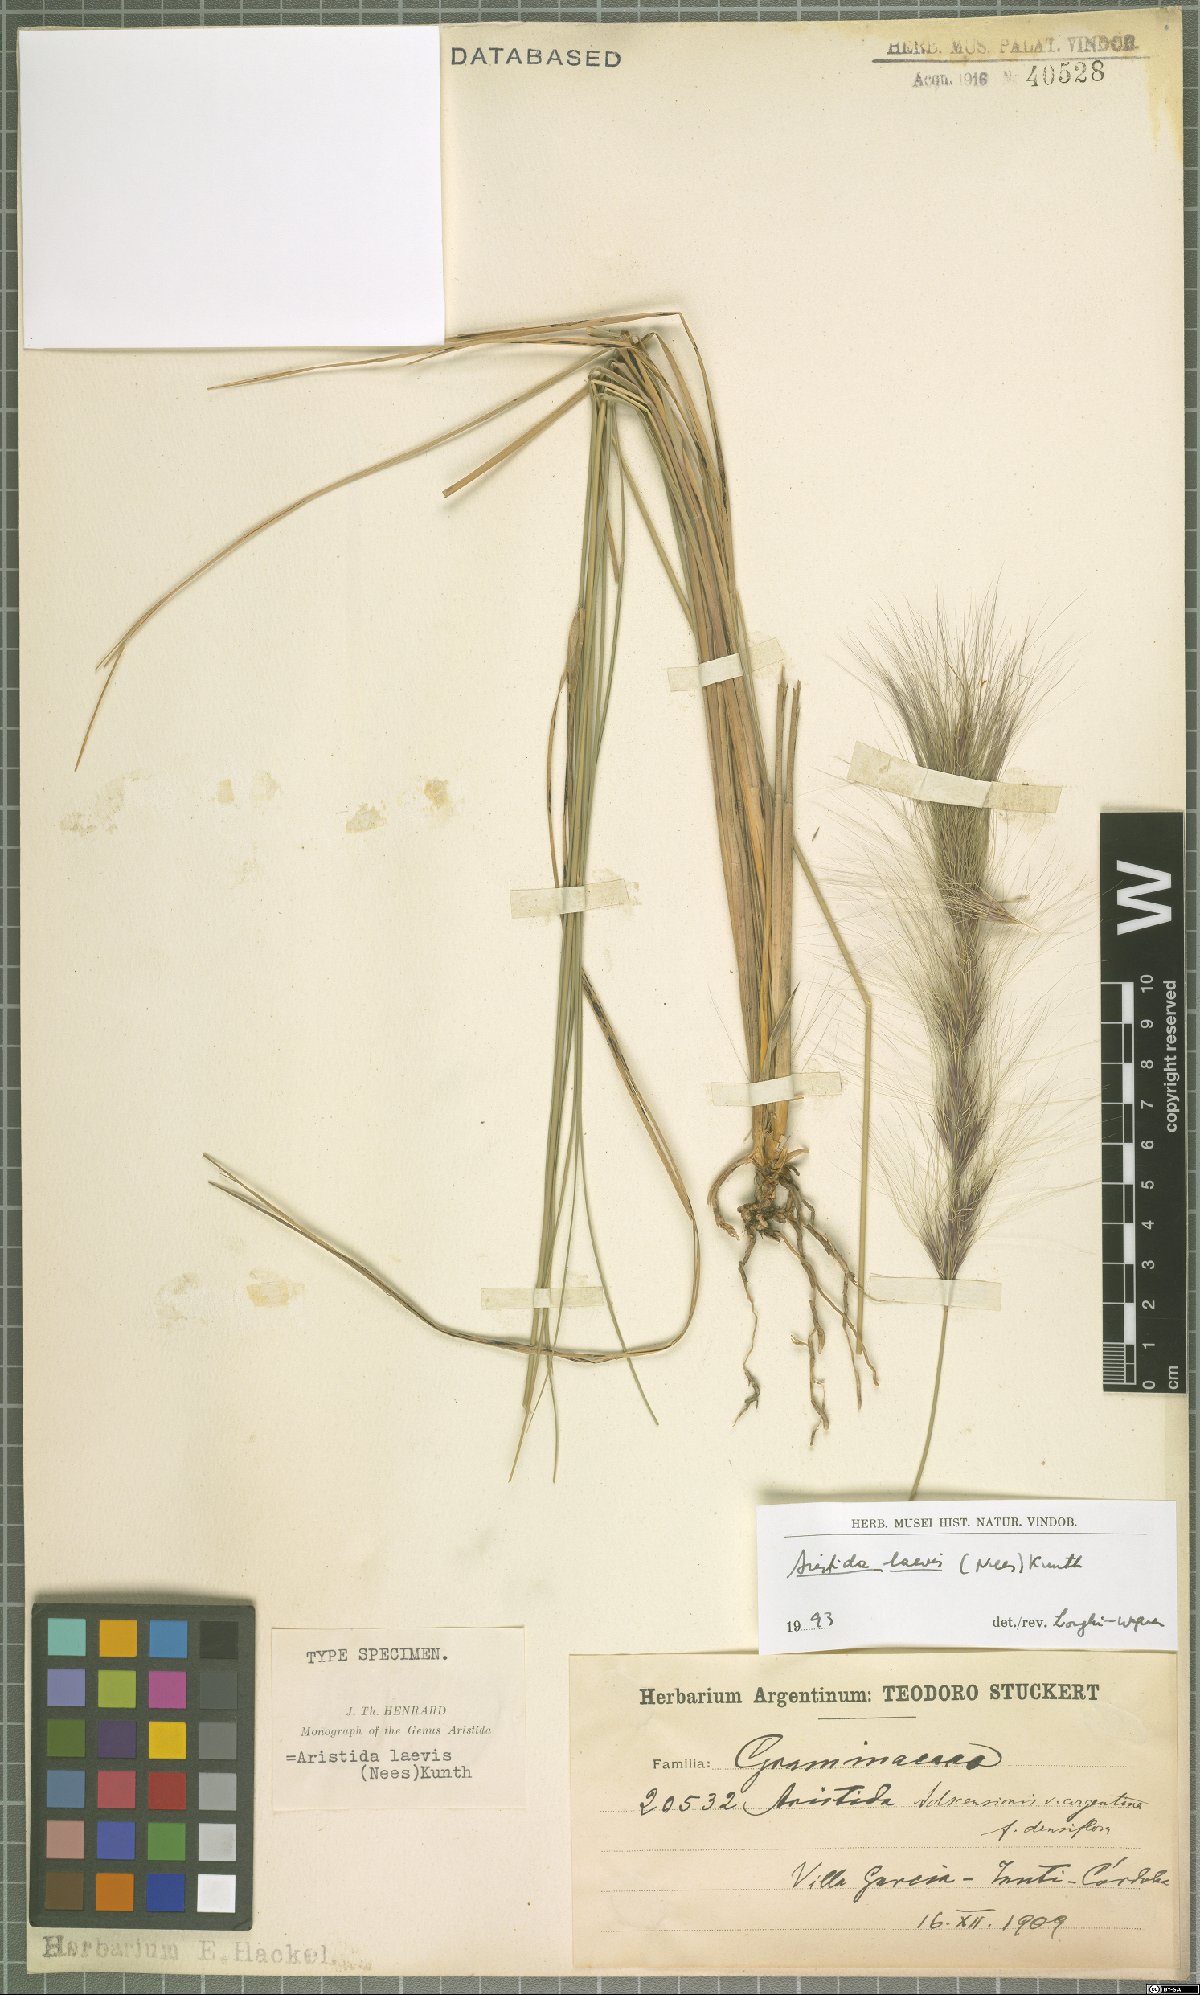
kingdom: Plantae
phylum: Tracheophyta
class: Liliopsida
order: Poales
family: Poaceae
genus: Aristida
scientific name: Aristida laevis
